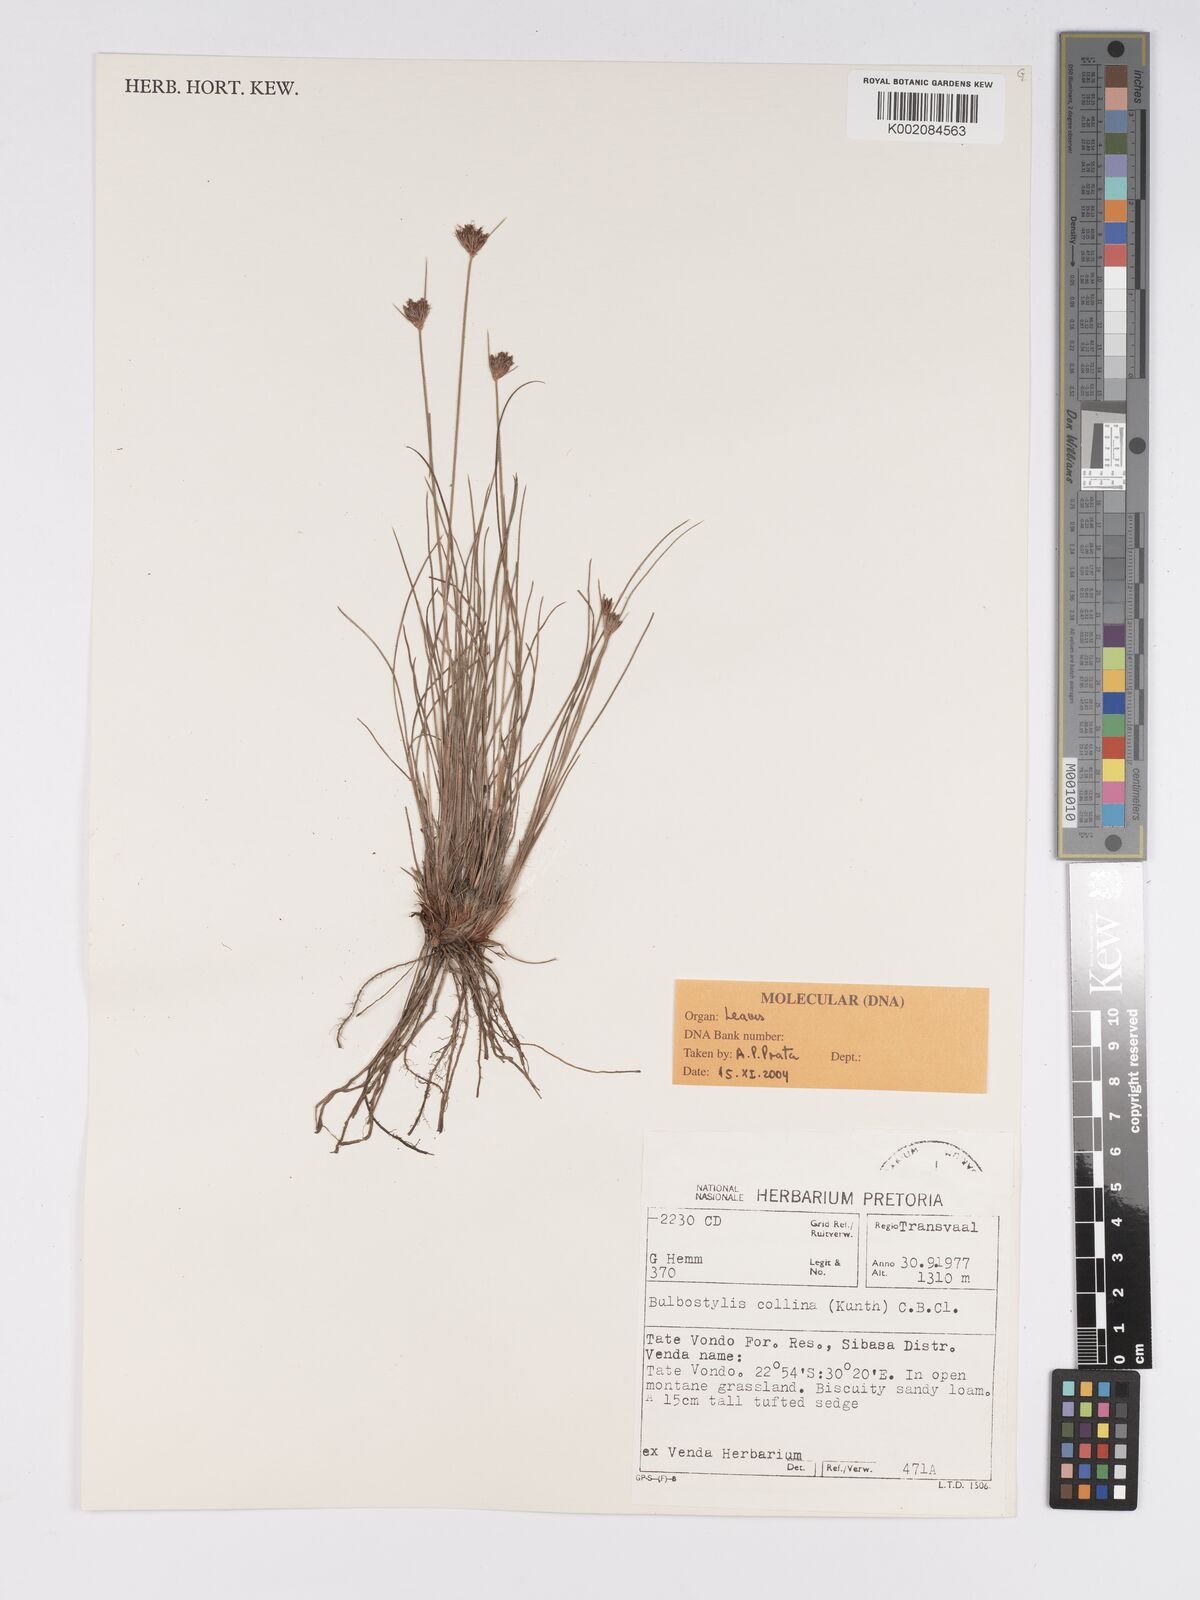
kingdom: Plantae
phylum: Tracheophyta
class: Liliopsida
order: Poales
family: Cyperaceae
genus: Bulbostylis
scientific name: Bulbostylis contexta
